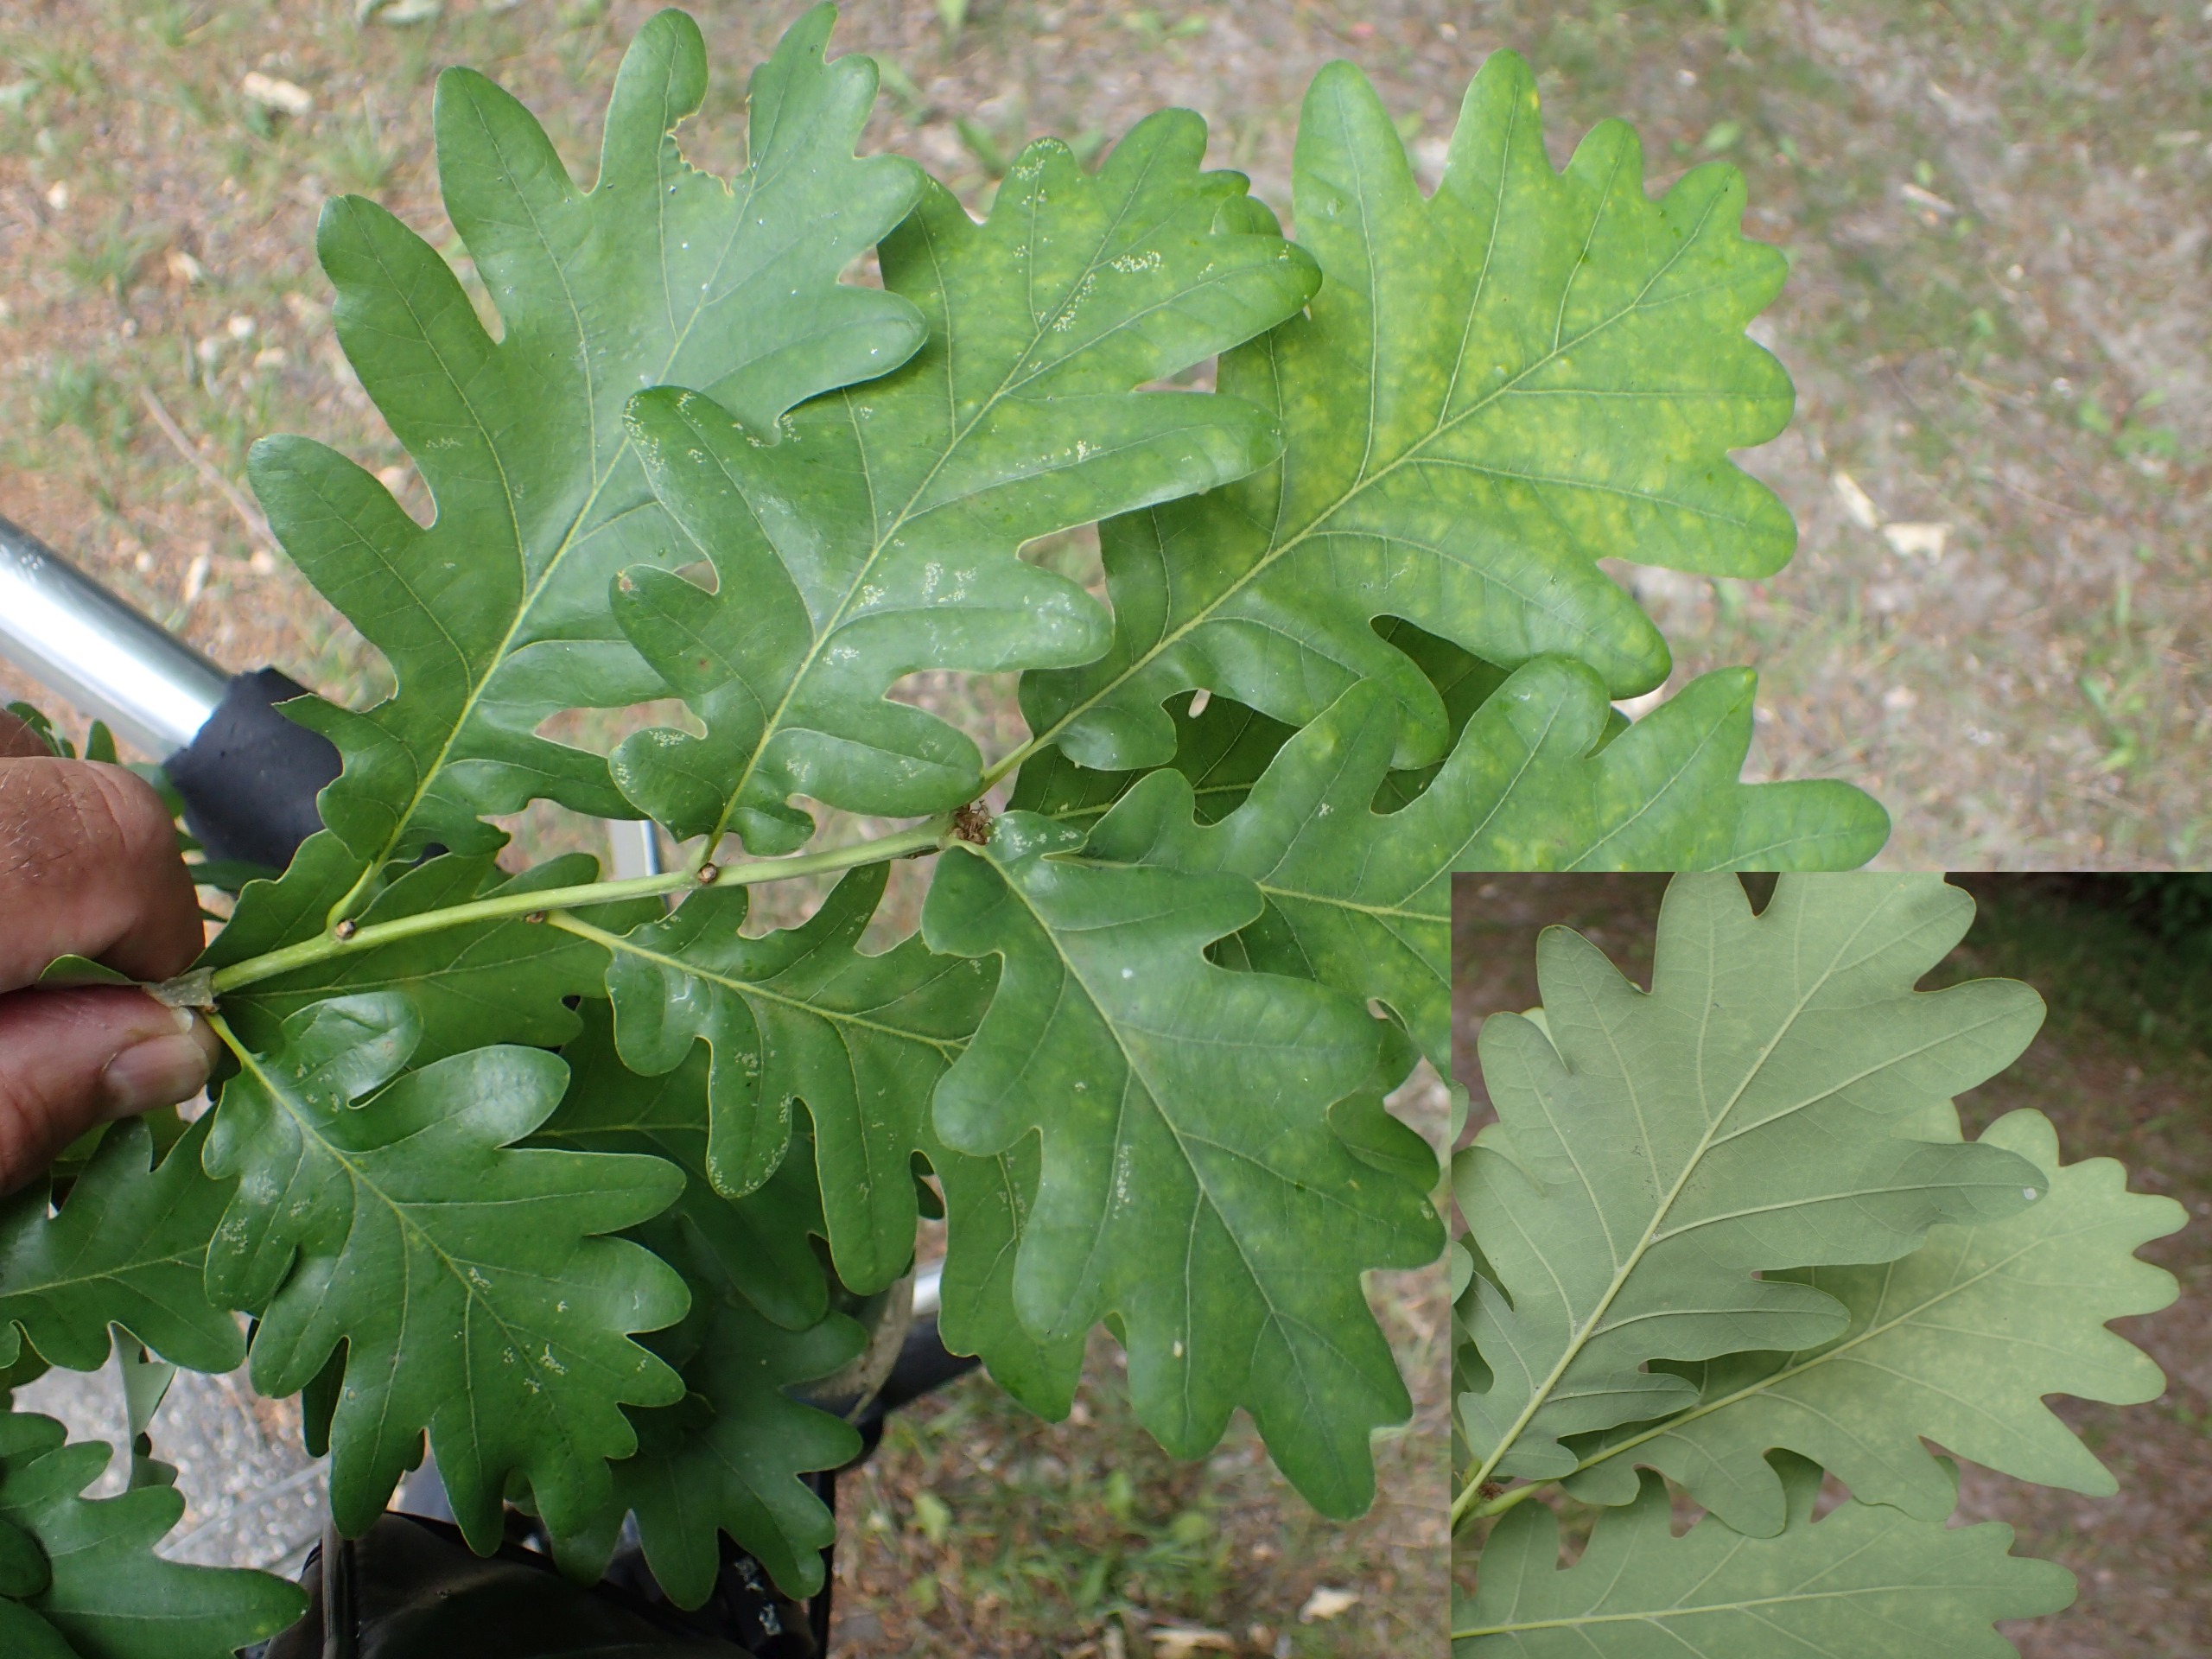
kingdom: Plantae
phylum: Tracheophyta
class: Magnoliopsida
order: Fagales
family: Fagaceae
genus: Quercus
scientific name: Quercus petraea
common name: Vinter-eg
